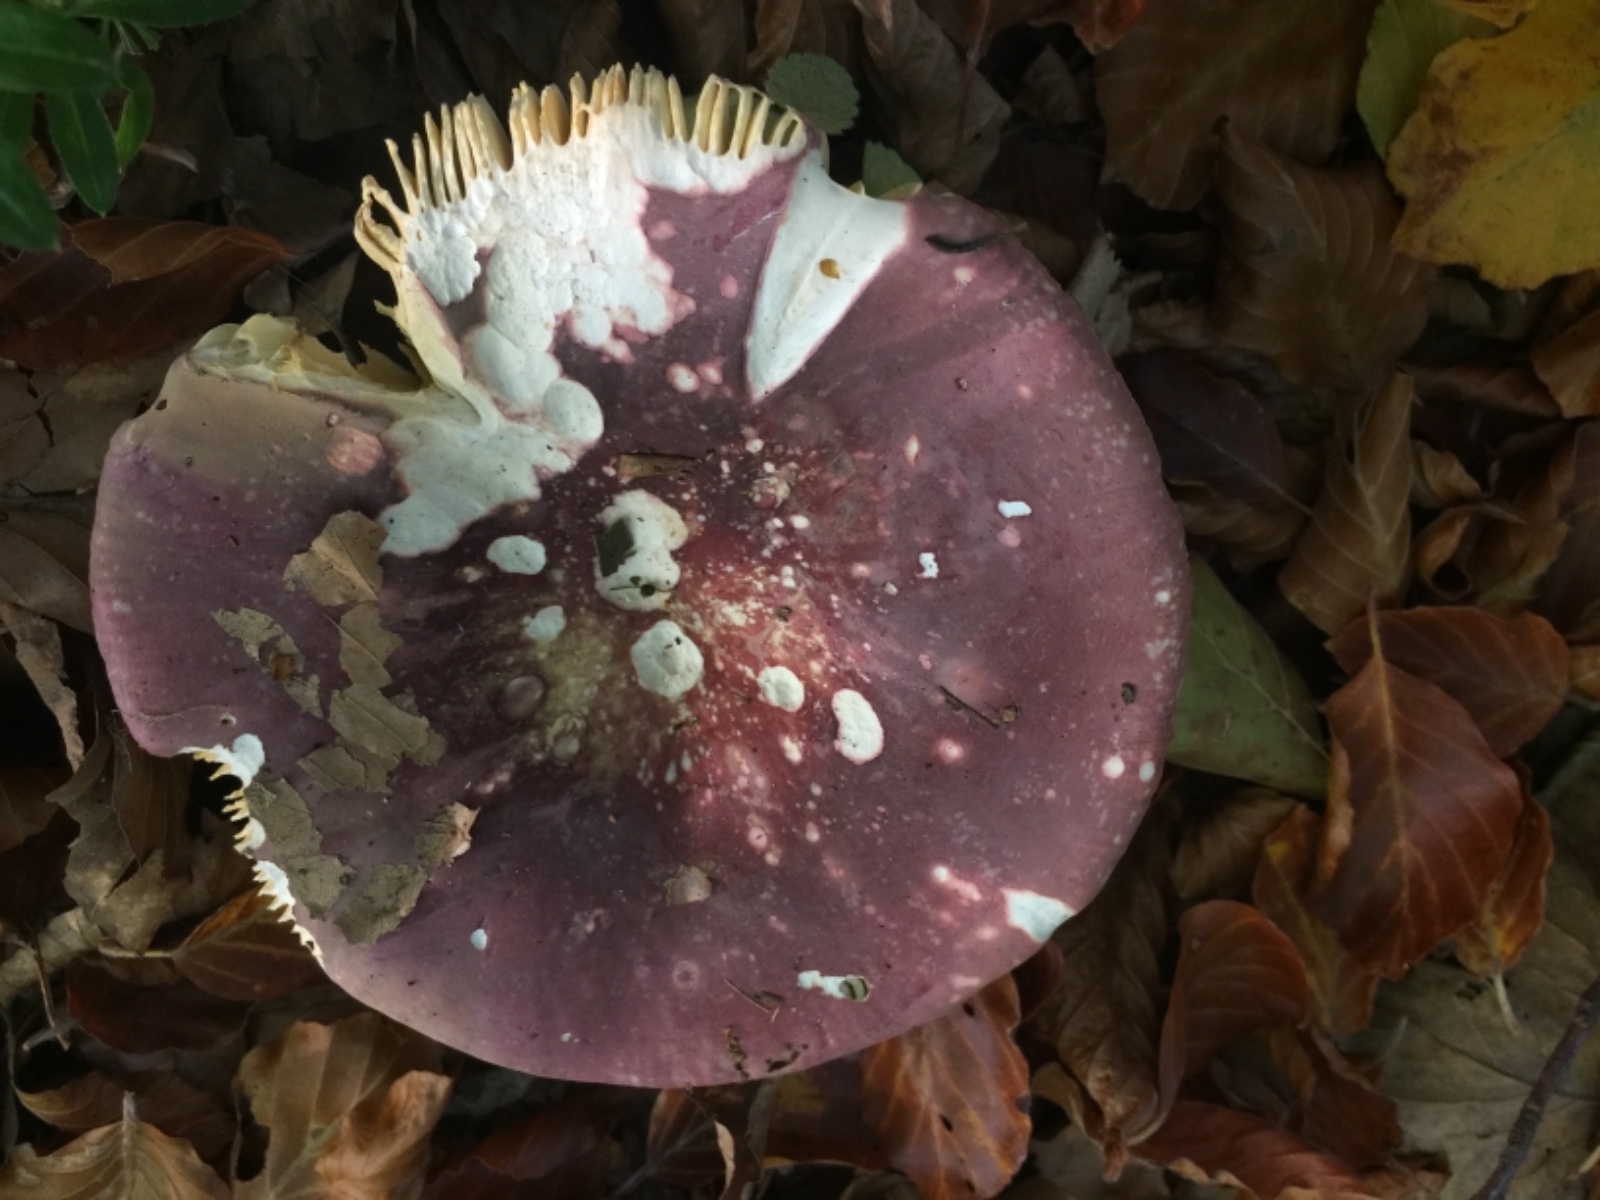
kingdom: Fungi
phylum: Basidiomycota
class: Agaricomycetes
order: Russulales
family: Russulaceae
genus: Russula
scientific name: Russula olivacea
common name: stor skørhat
